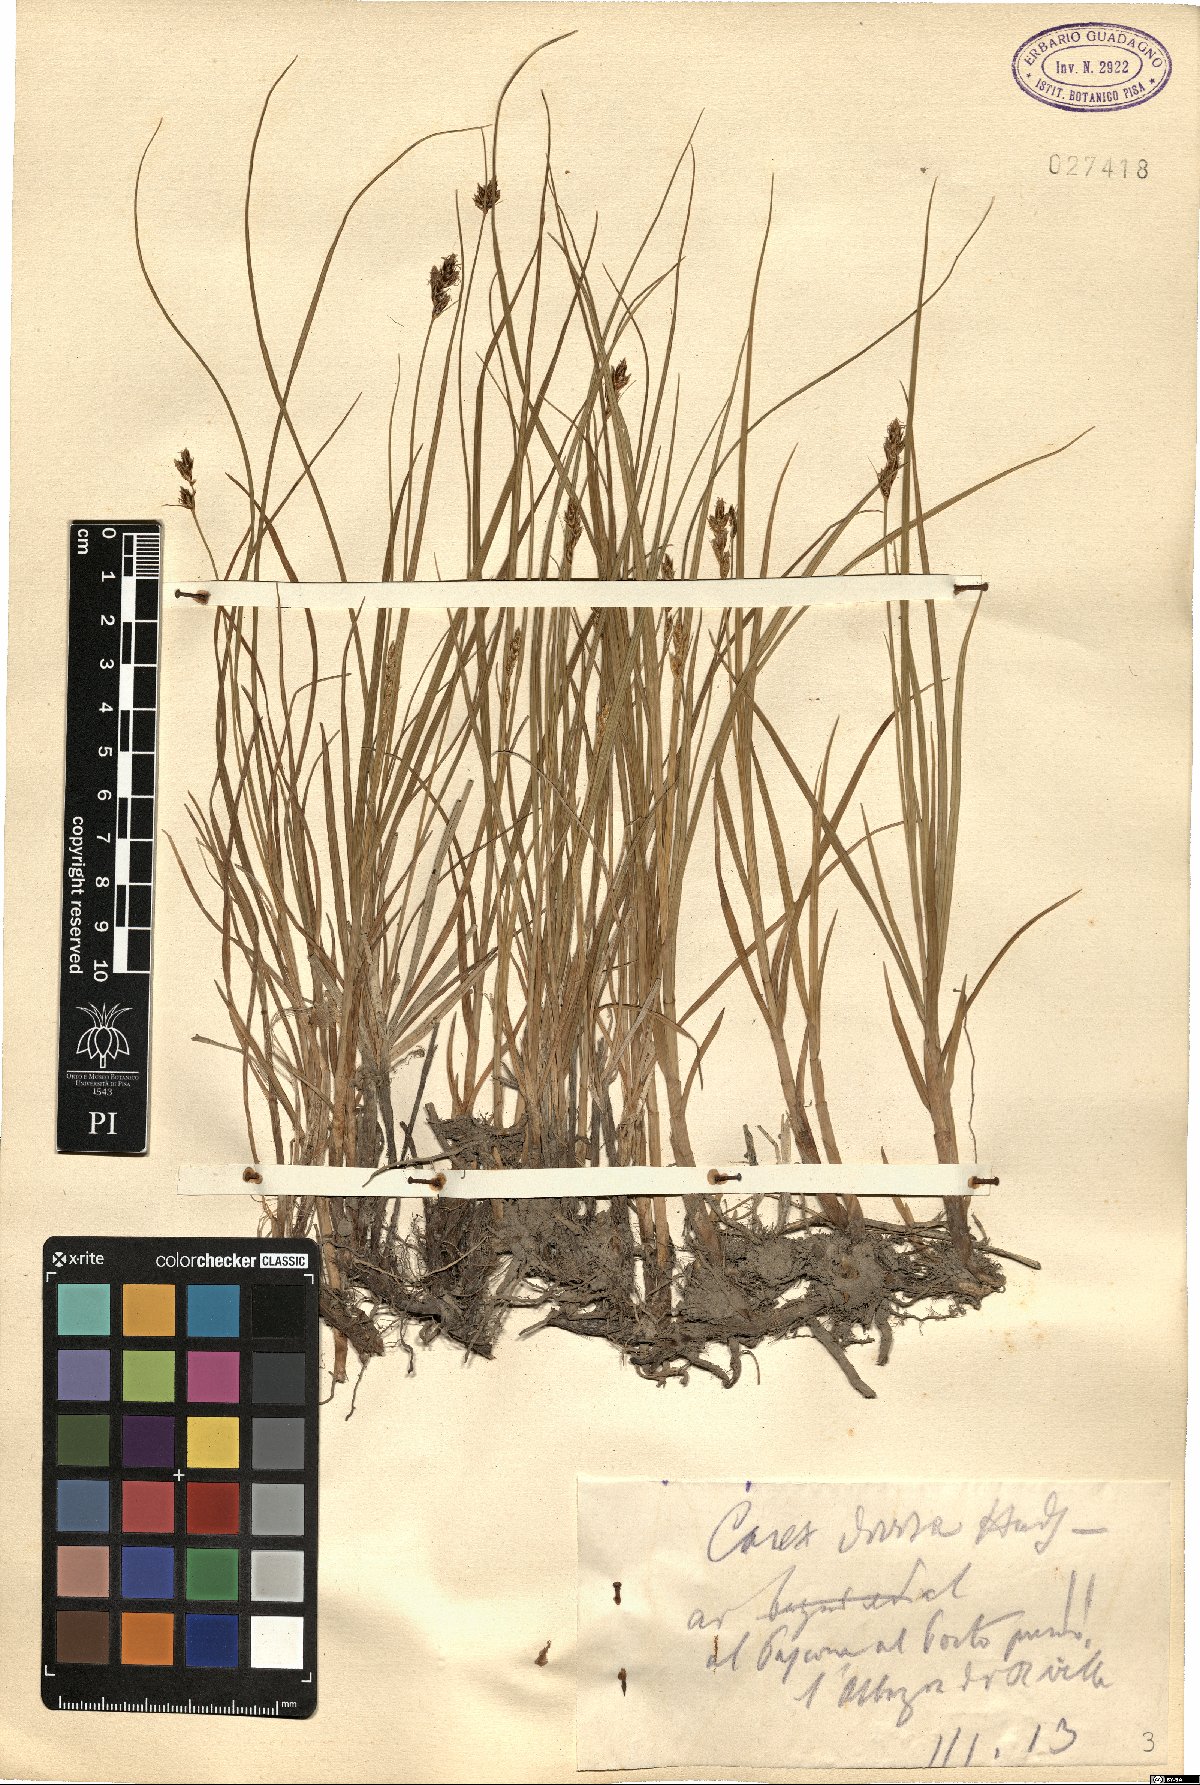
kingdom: Plantae
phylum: Tracheophyta
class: Liliopsida
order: Poales
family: Cyperaceae
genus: Carex
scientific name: Carex divisa
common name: Divided sedge
